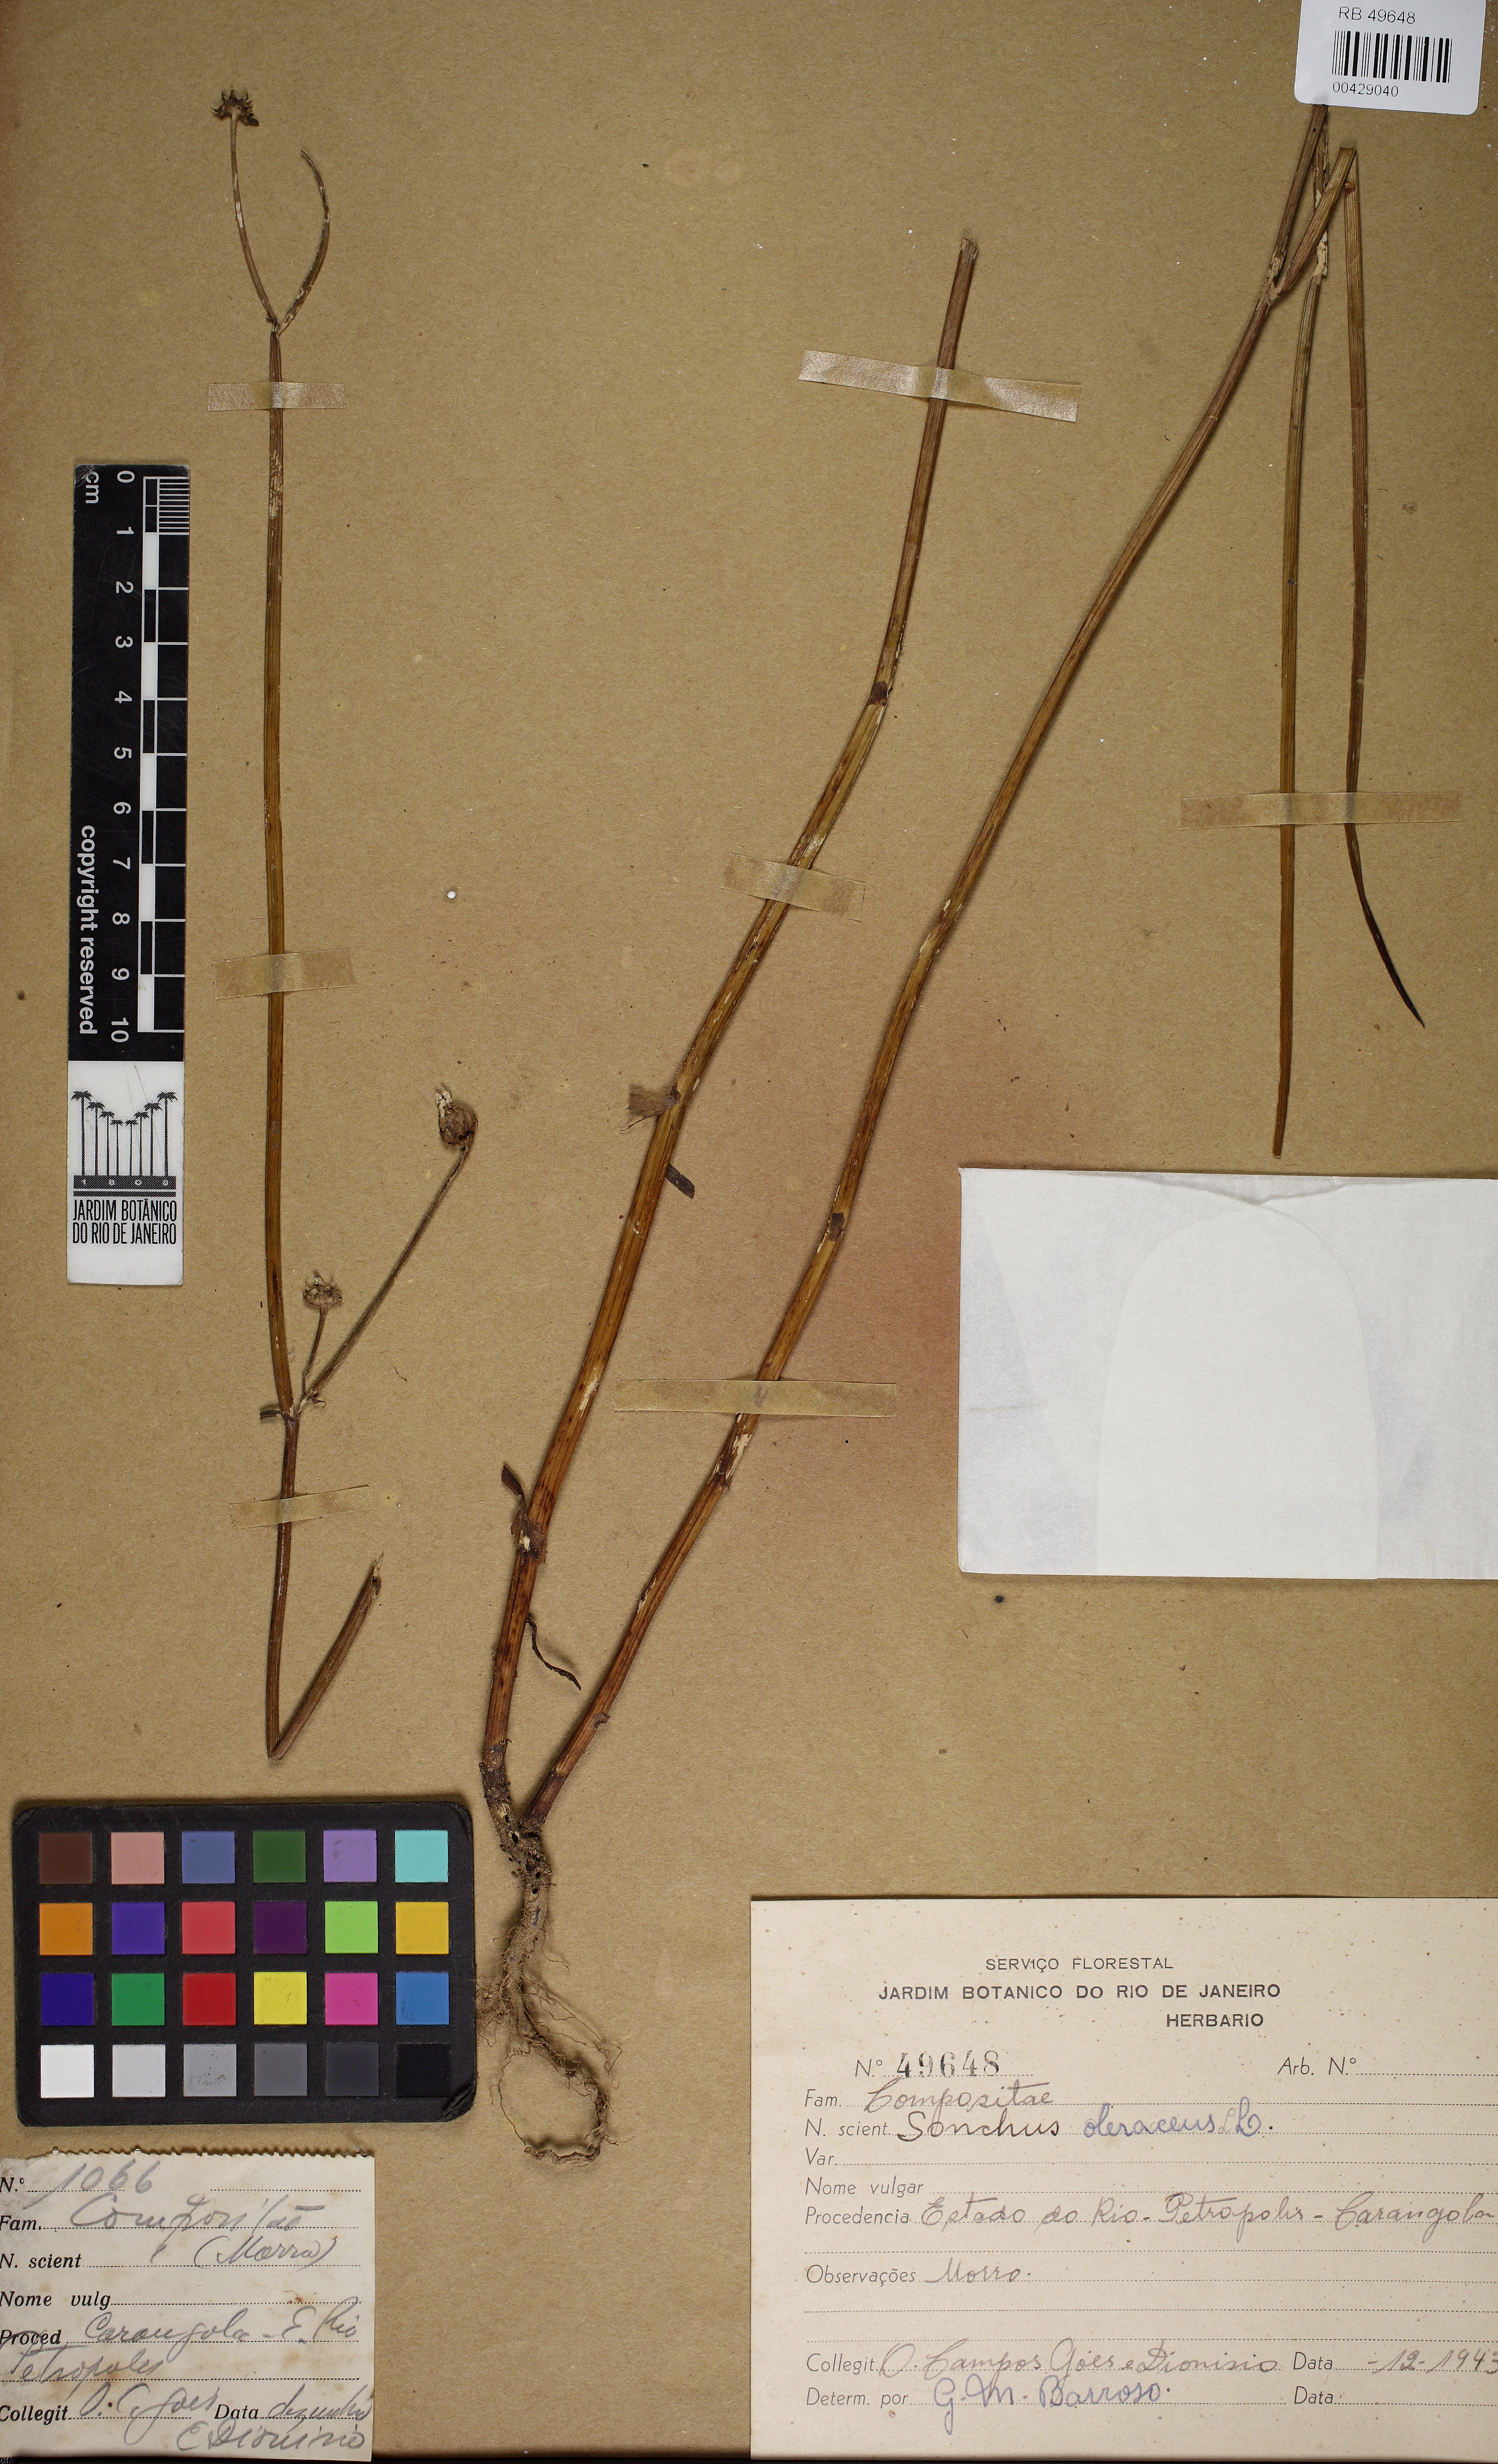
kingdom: Plantae
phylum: Tracheophyta
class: Magnoliopsida
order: Asterales
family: Asteraceae
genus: Sonchus
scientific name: Sonchus oleraceus
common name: Common sowthistle
